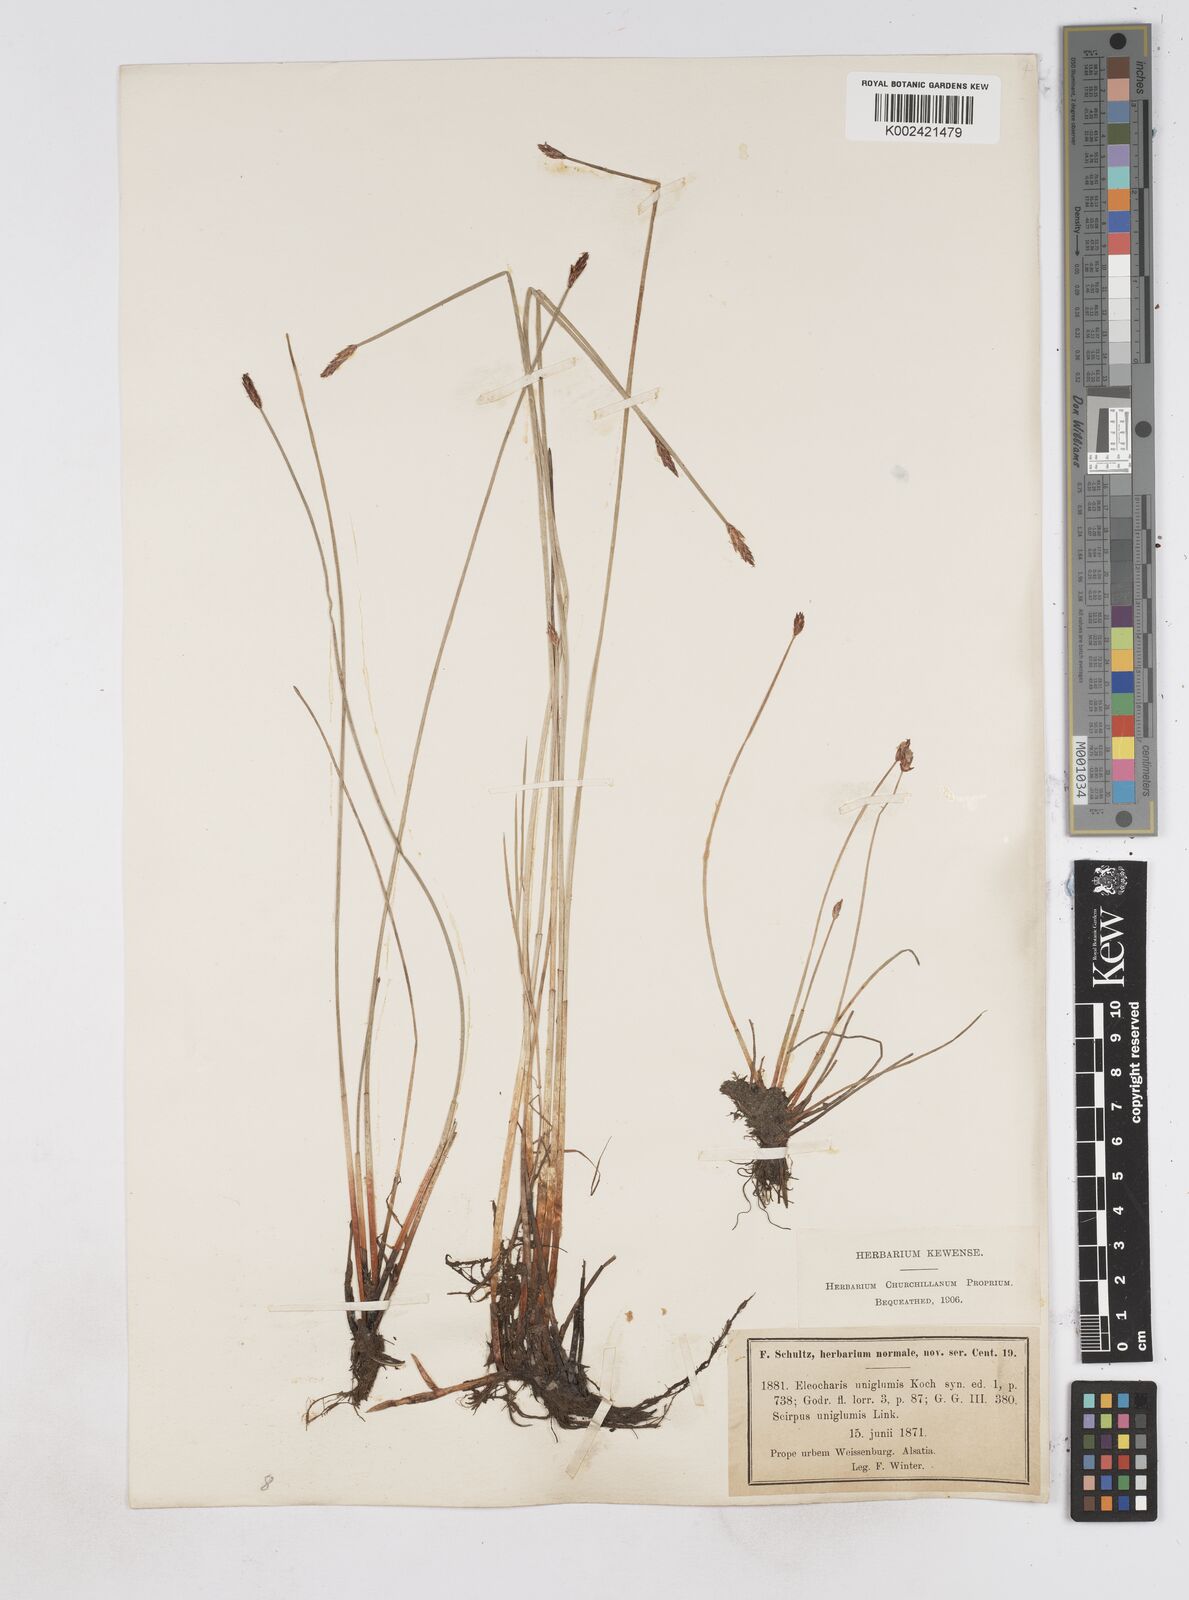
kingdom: Plantae
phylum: Tracheophyta
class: Liliopsida
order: Poales
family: Cyperaceae
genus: Eleocharis
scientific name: Eleocharis uniglumis
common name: Slender spike-rush
